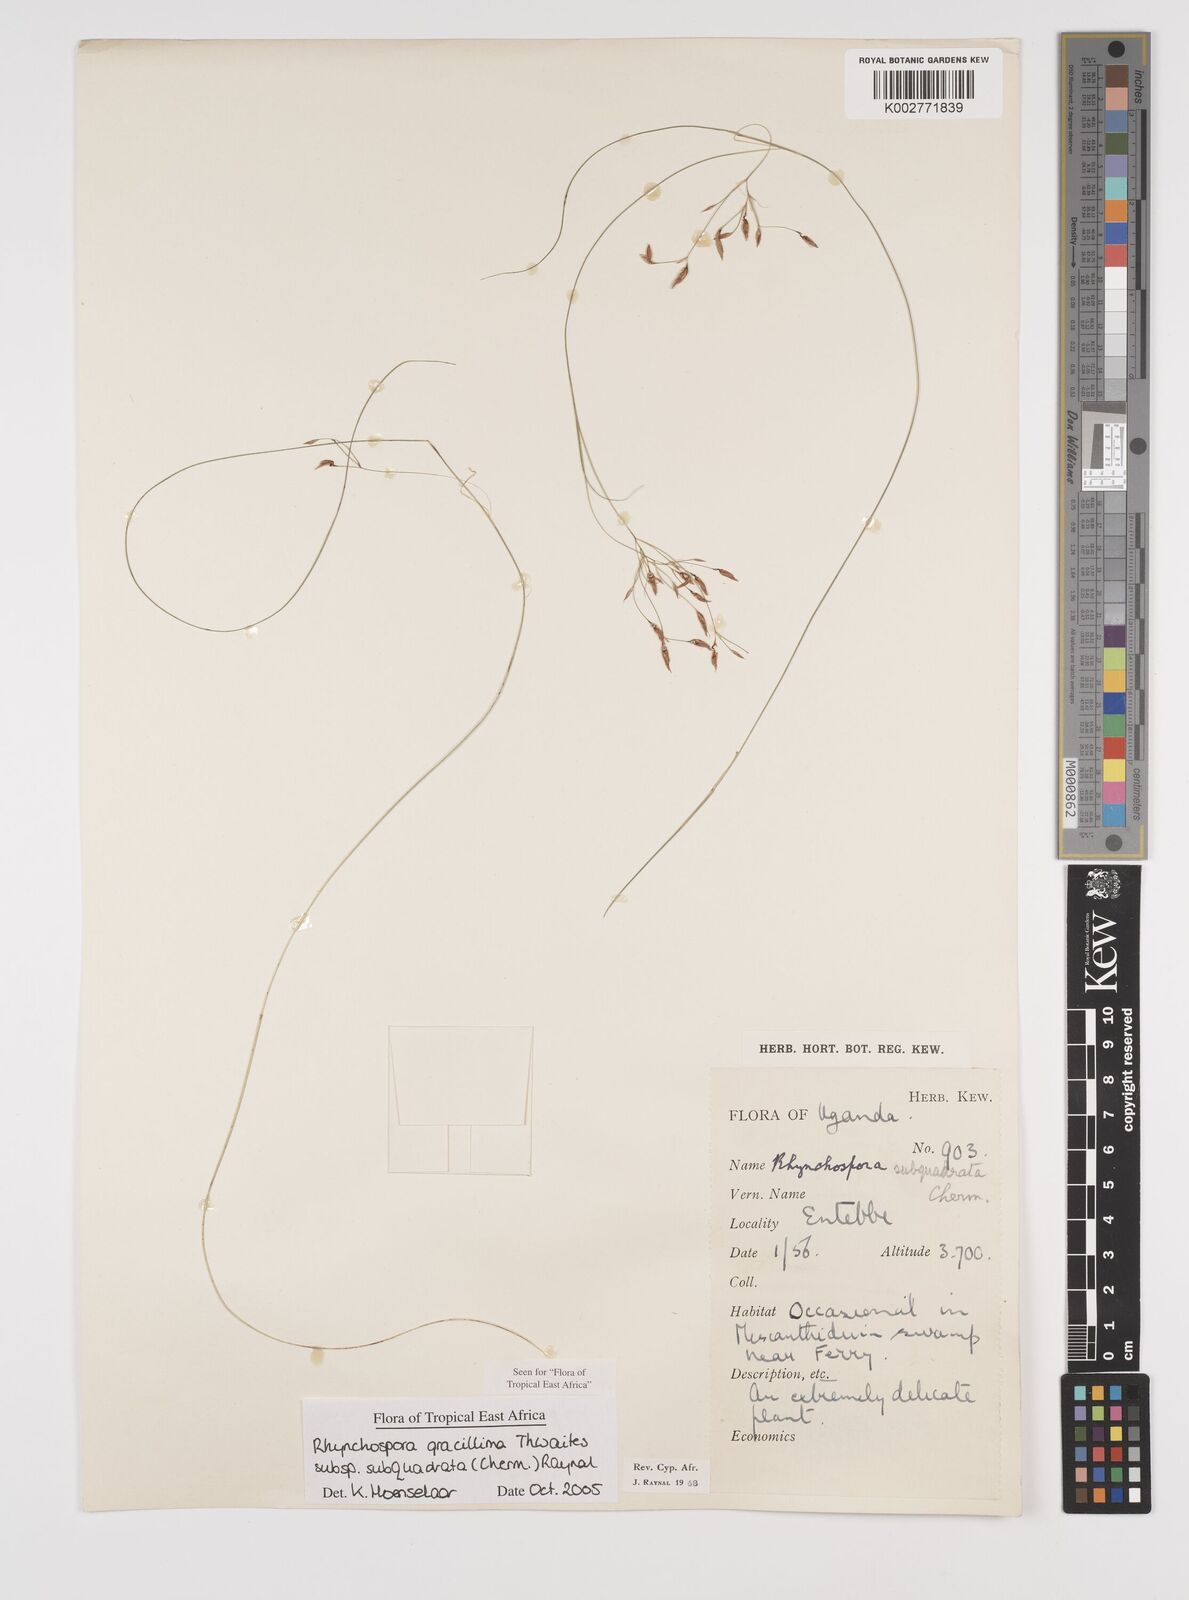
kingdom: Plantae
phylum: Tracheophyta
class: Liliopsida
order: Poales
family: Cyperaceae
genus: Rhynchospora
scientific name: Rhynchospora gracillima
